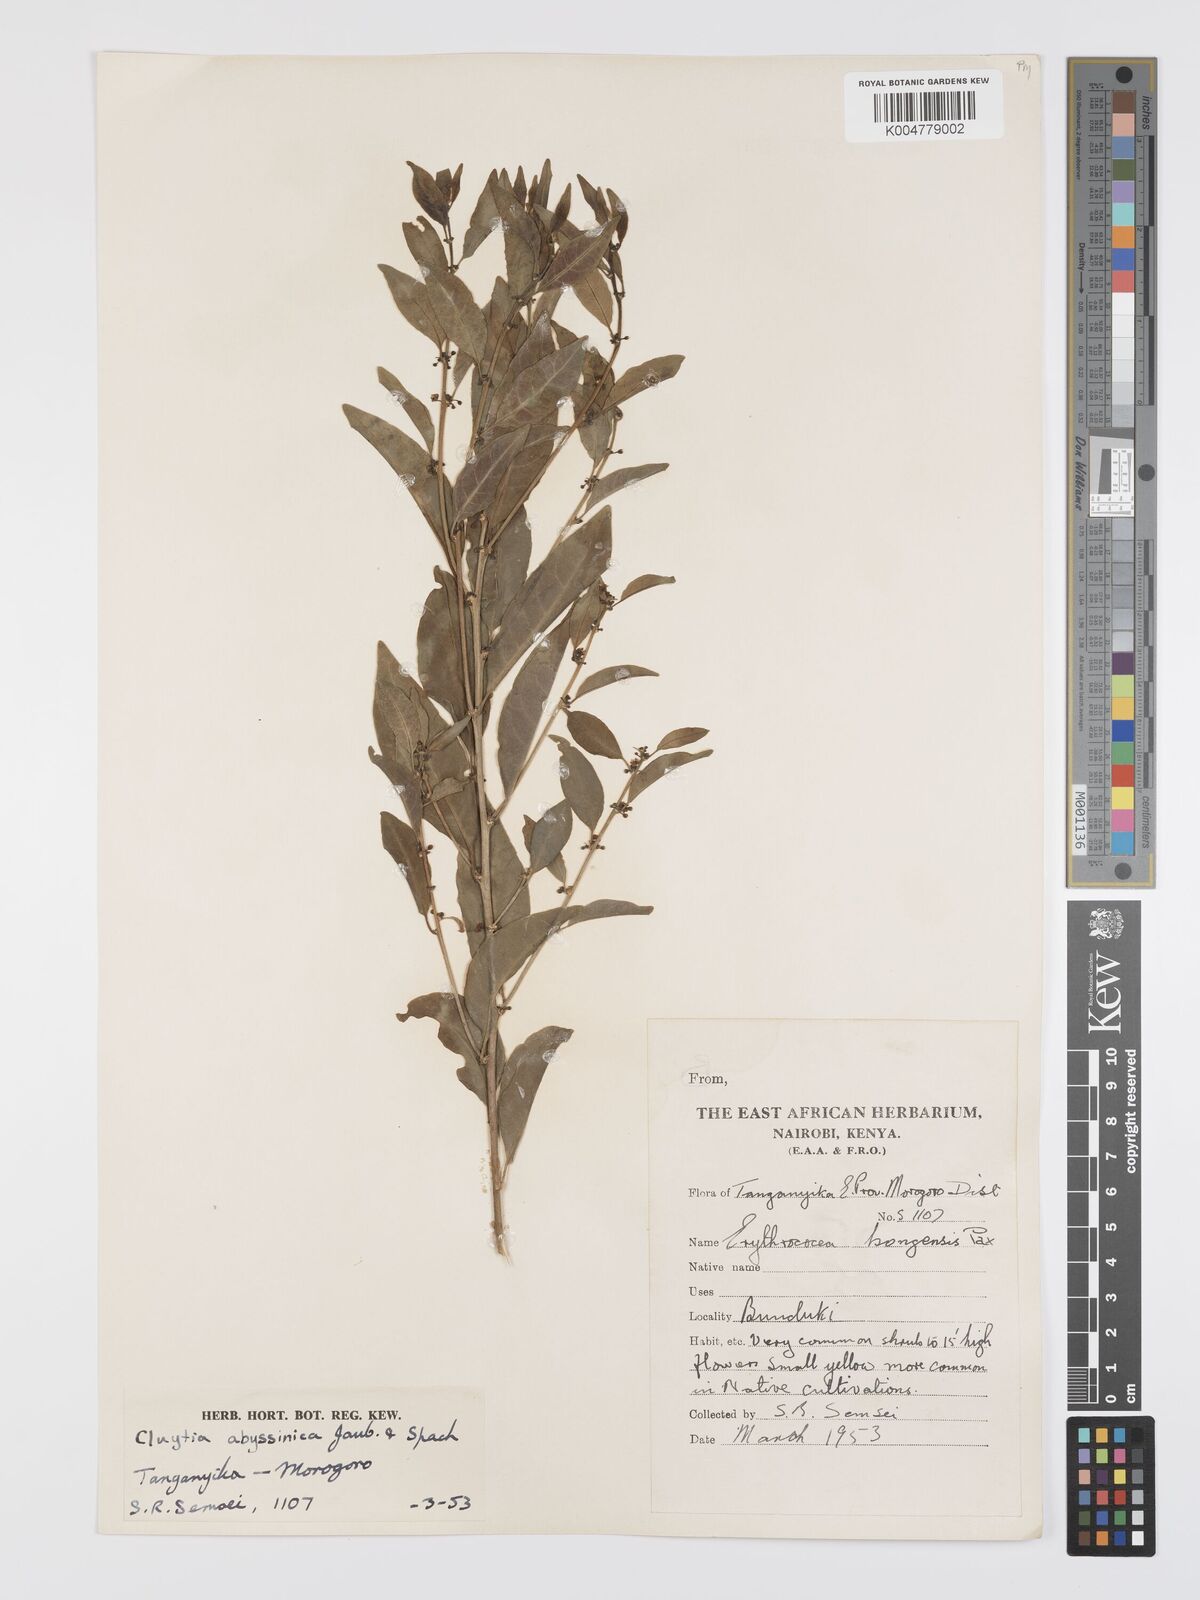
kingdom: Plantae
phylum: Tracheophyta
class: Magnoliopsida
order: Malpighiales
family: Peraceae
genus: Clutia
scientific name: Clutia abyssinica
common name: Large lightning bush
